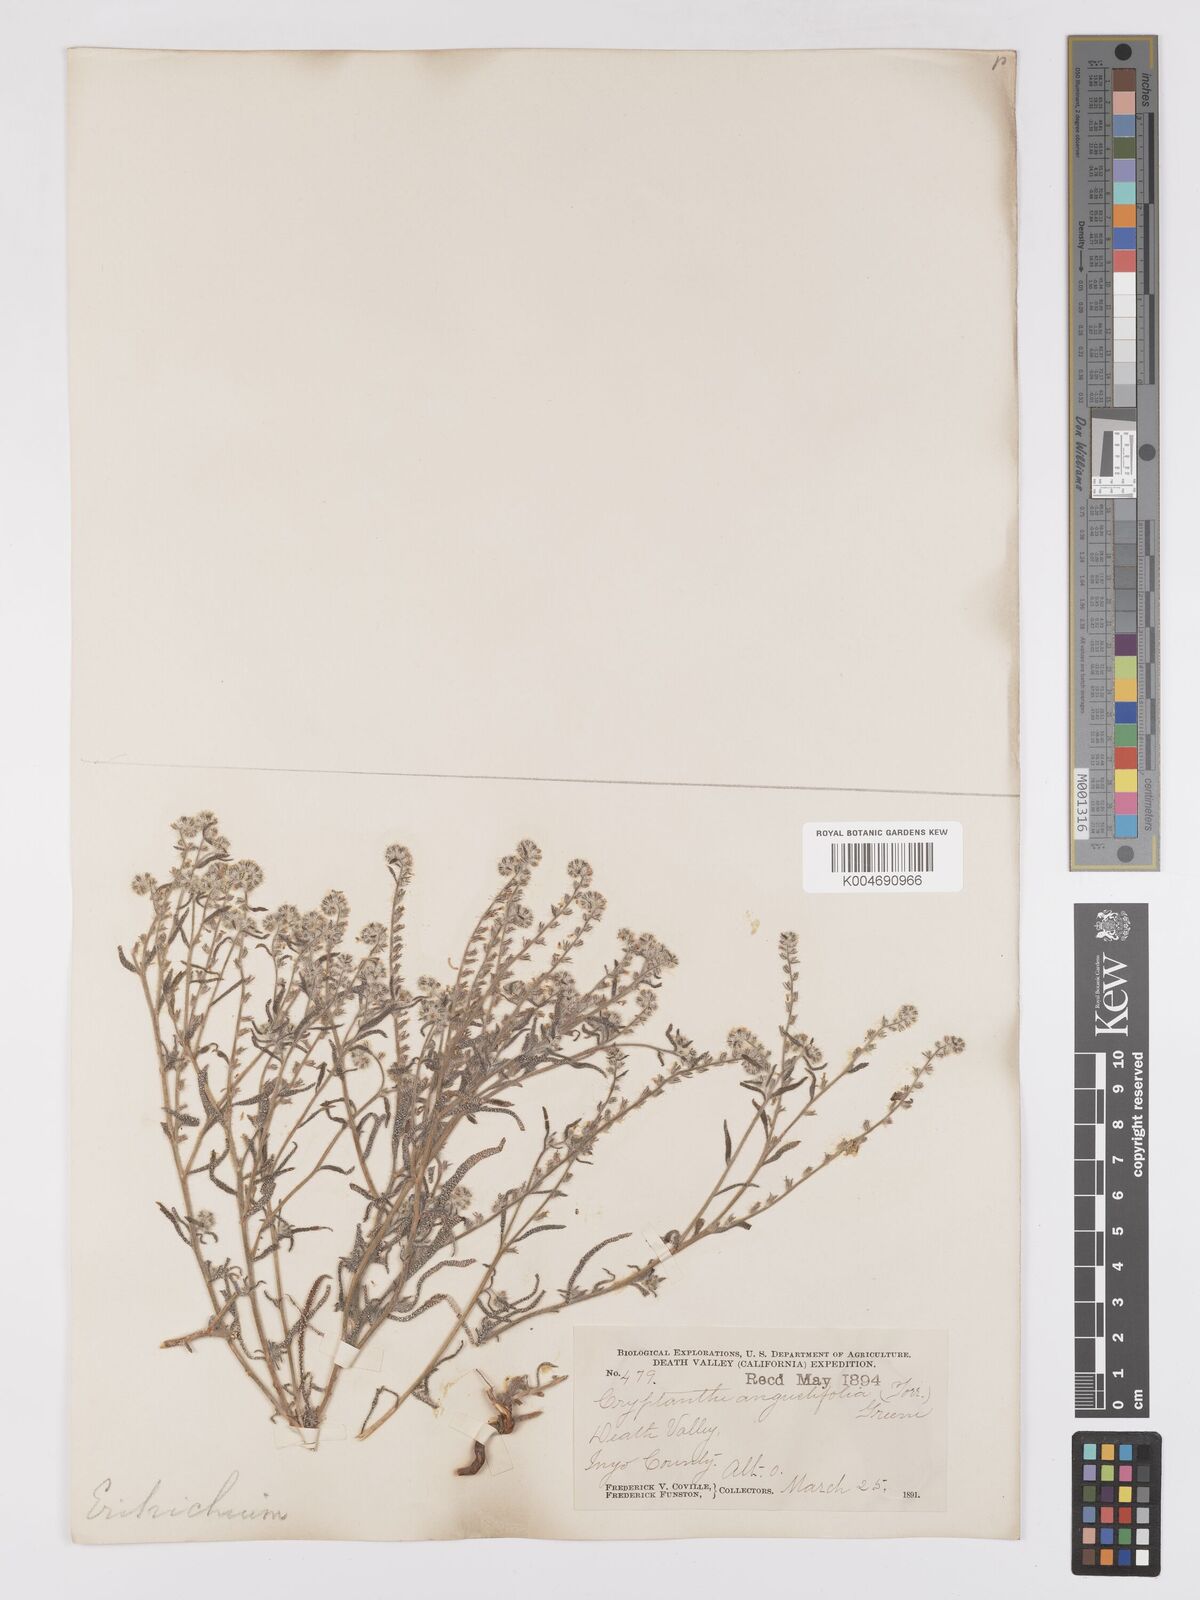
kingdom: Plantae
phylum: Tracheophyta
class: Magnoliopsida
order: Boraginales
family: Boraginaceae
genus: Johnstonella
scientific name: Johnstonella angustifolia
